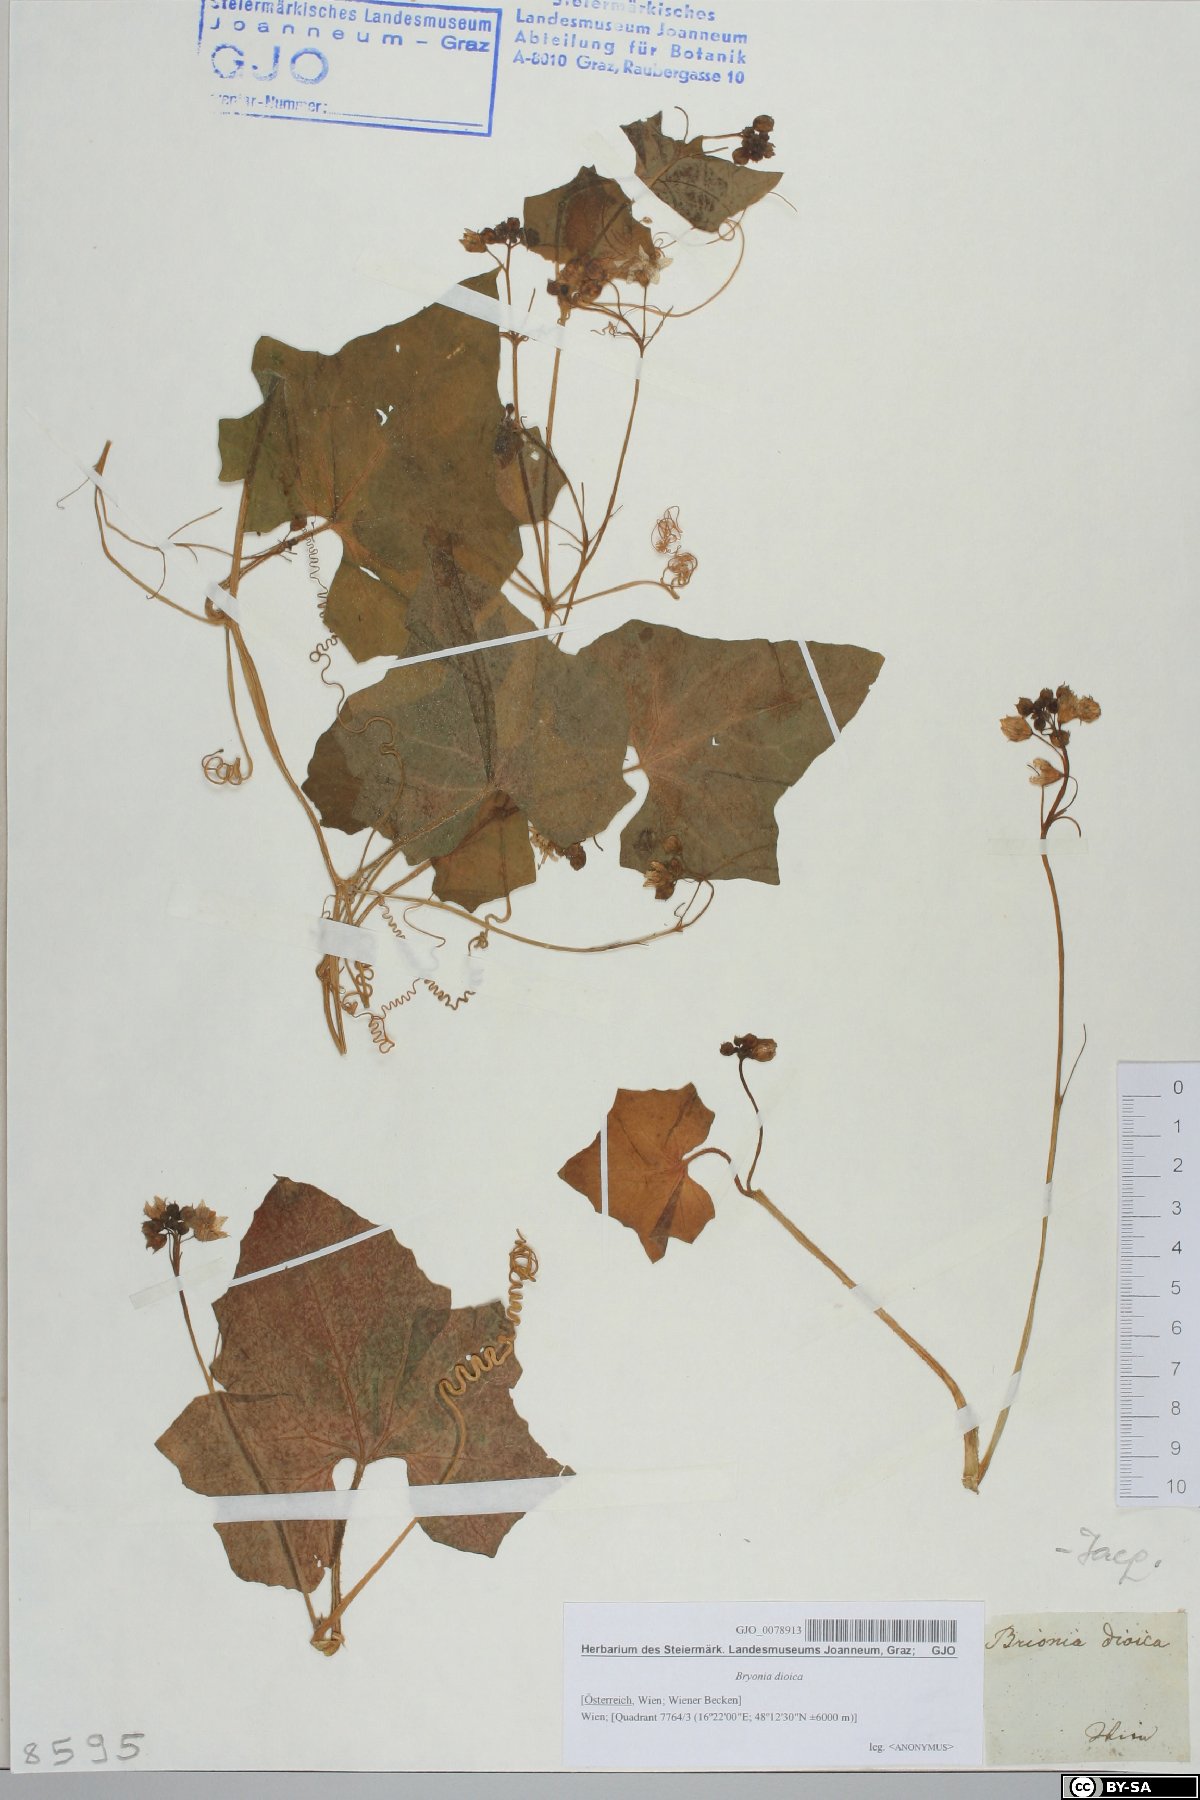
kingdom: Plantae
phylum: Tracheophyta
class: Magnoliopsida
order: Cucurbitales
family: Cucurbitaceae
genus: Bryonia
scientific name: Bryonia dioica
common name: White bryony
